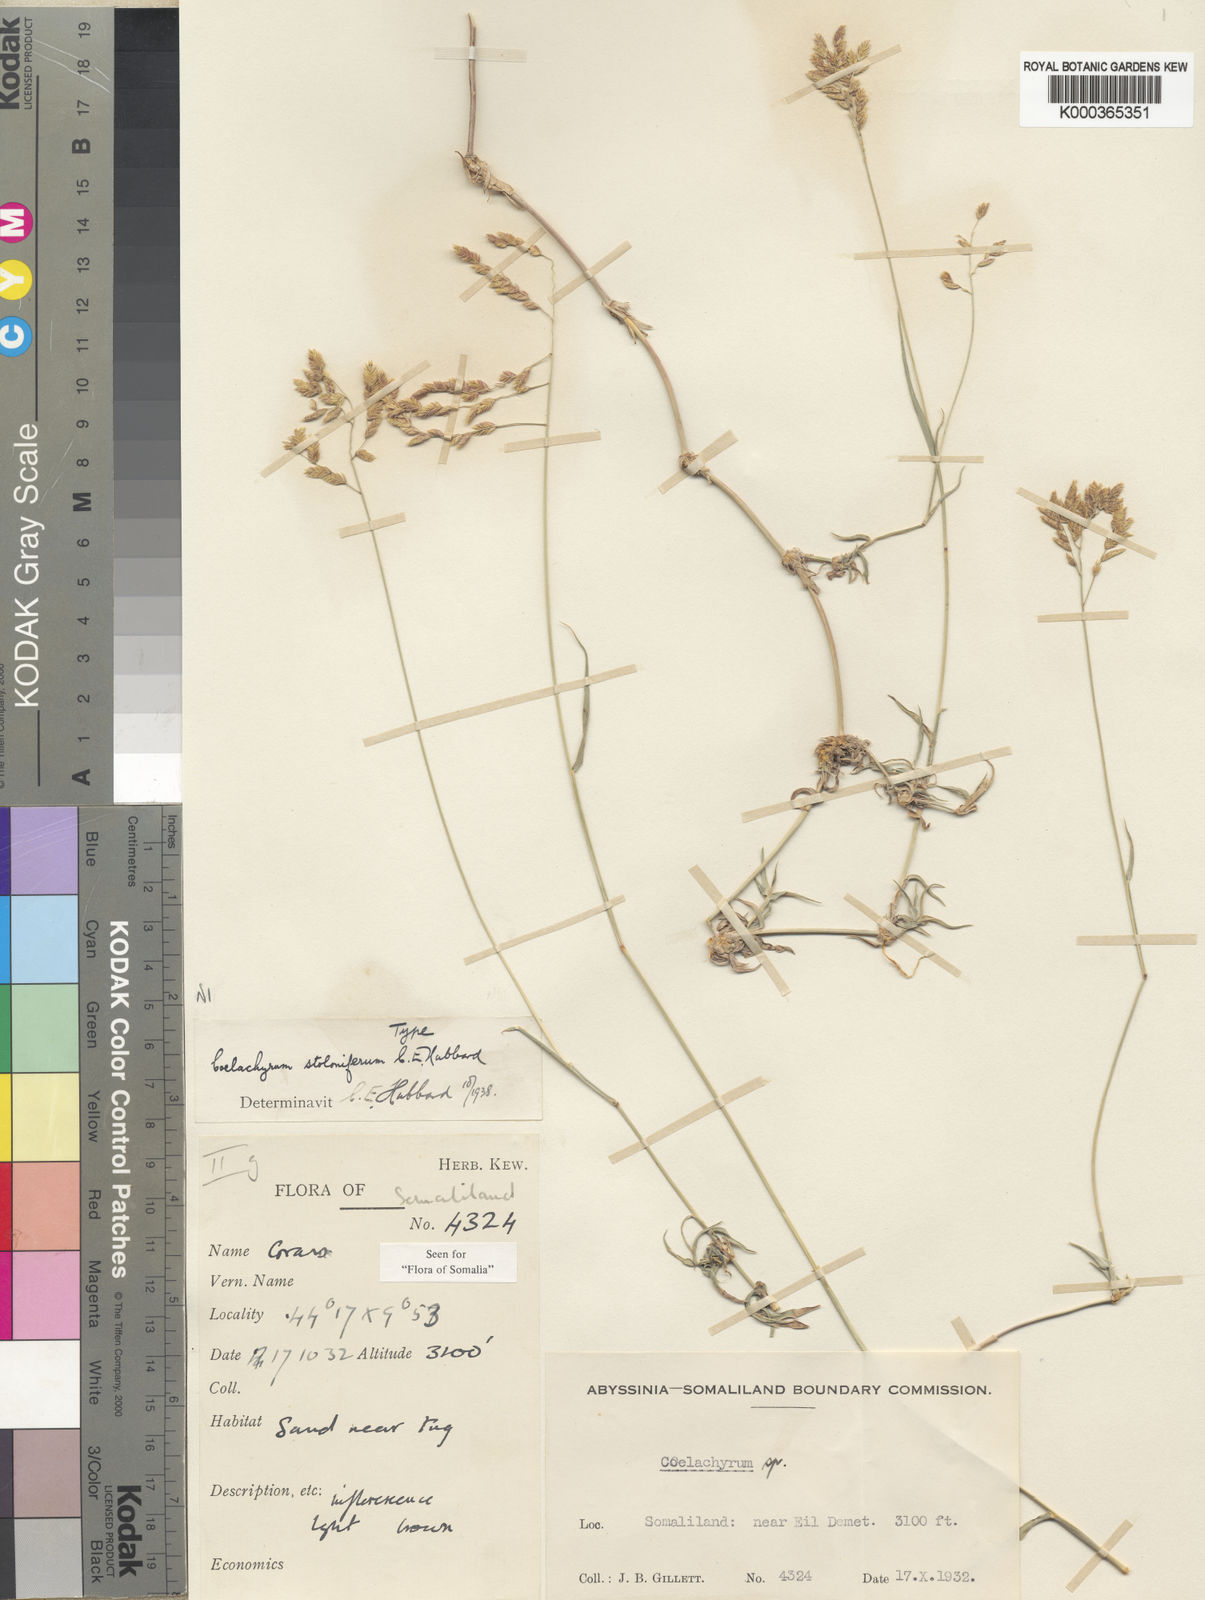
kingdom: Plantae
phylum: Tracheophyta
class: Liliopsida
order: Poales
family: Poaceae
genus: Coelachyrum
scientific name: Coelachyrum piercei
